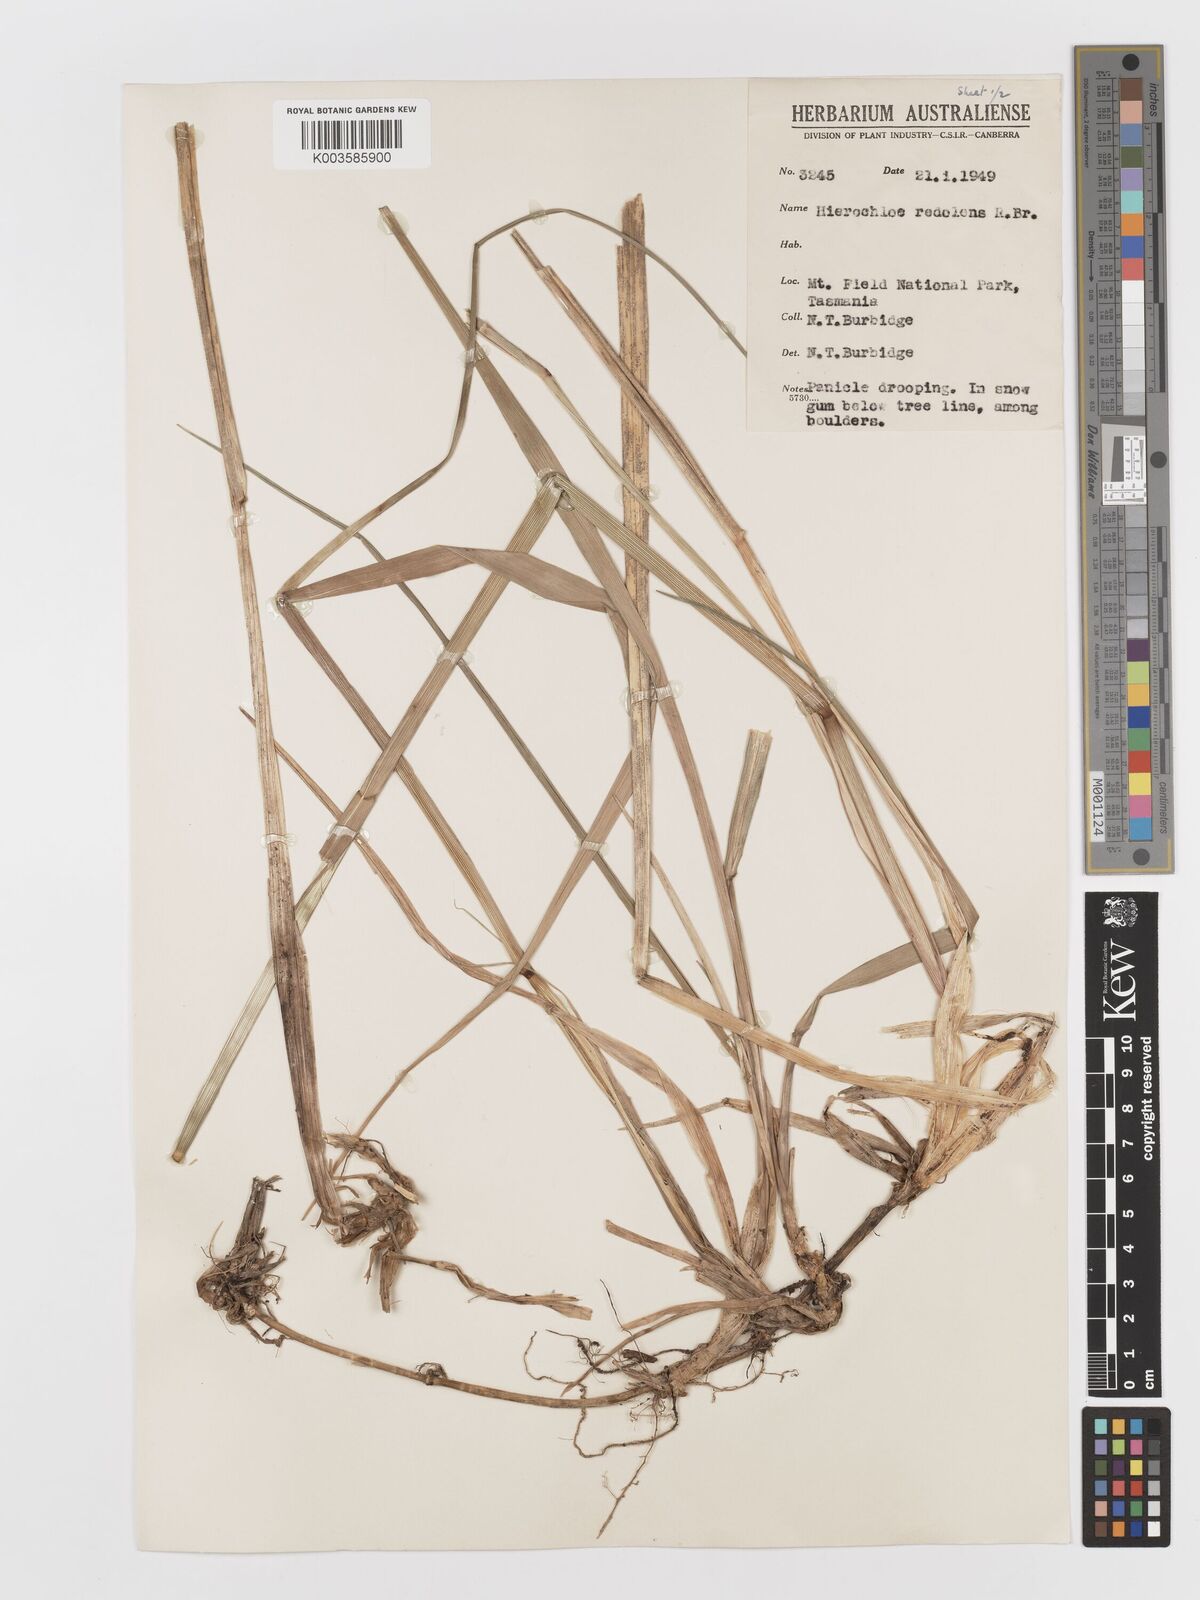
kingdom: Plantae
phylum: Tracheophyta
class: Liliopsida
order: Poales
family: Poaceae
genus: Anthoxanthum
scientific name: Anthoxanthum redolens
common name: Sweet holy grass
